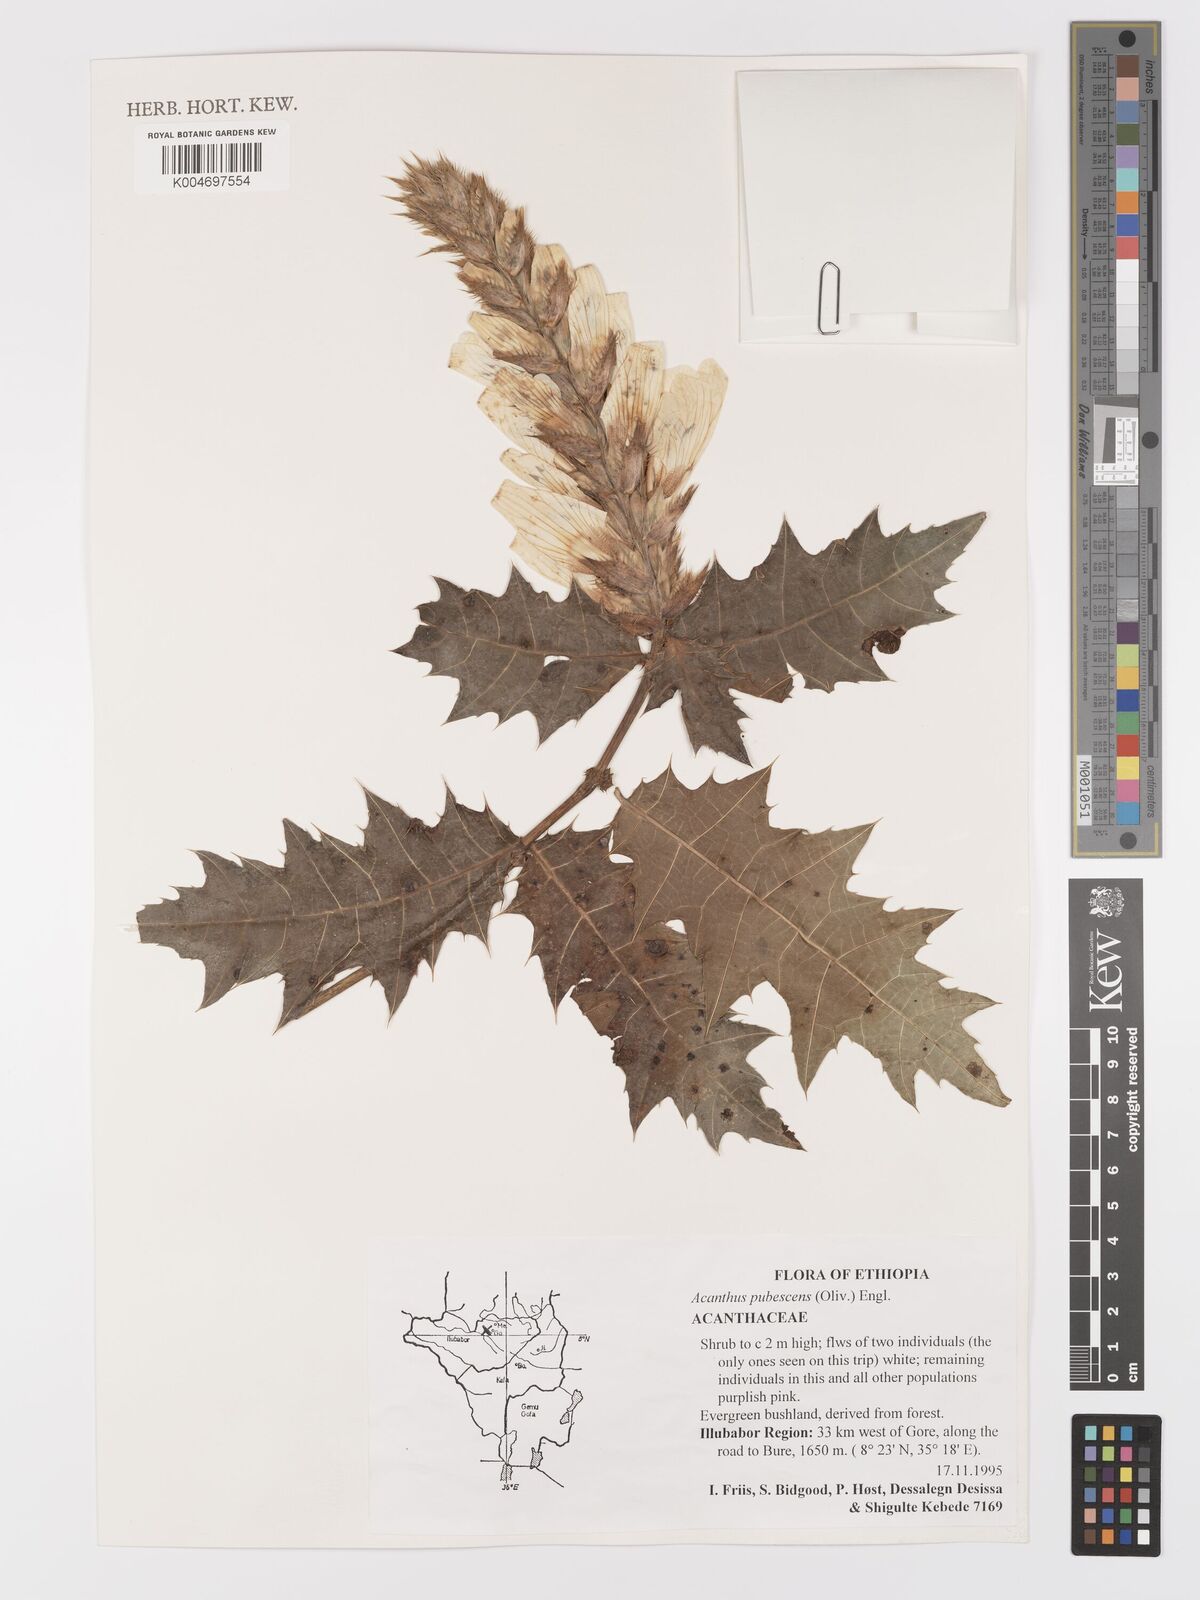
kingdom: Plantae
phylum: Tracheophyta
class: Magnoliopsida
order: Lamiales
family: Acanthaceae
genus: Acanthus
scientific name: Acanthus polystachyus
